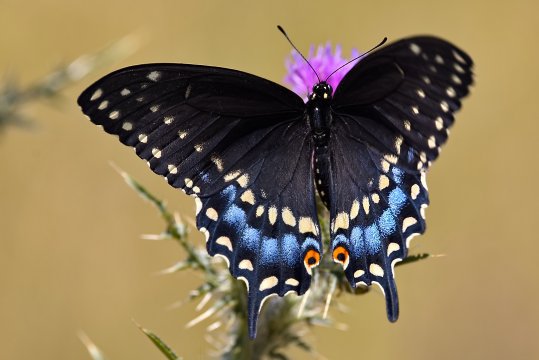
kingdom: Animalia
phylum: Arthropoda
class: Insecta
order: Lepidoptera
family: Papilionidae
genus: Papilio
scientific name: Papilio polyxenes
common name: Black Swallowtail
